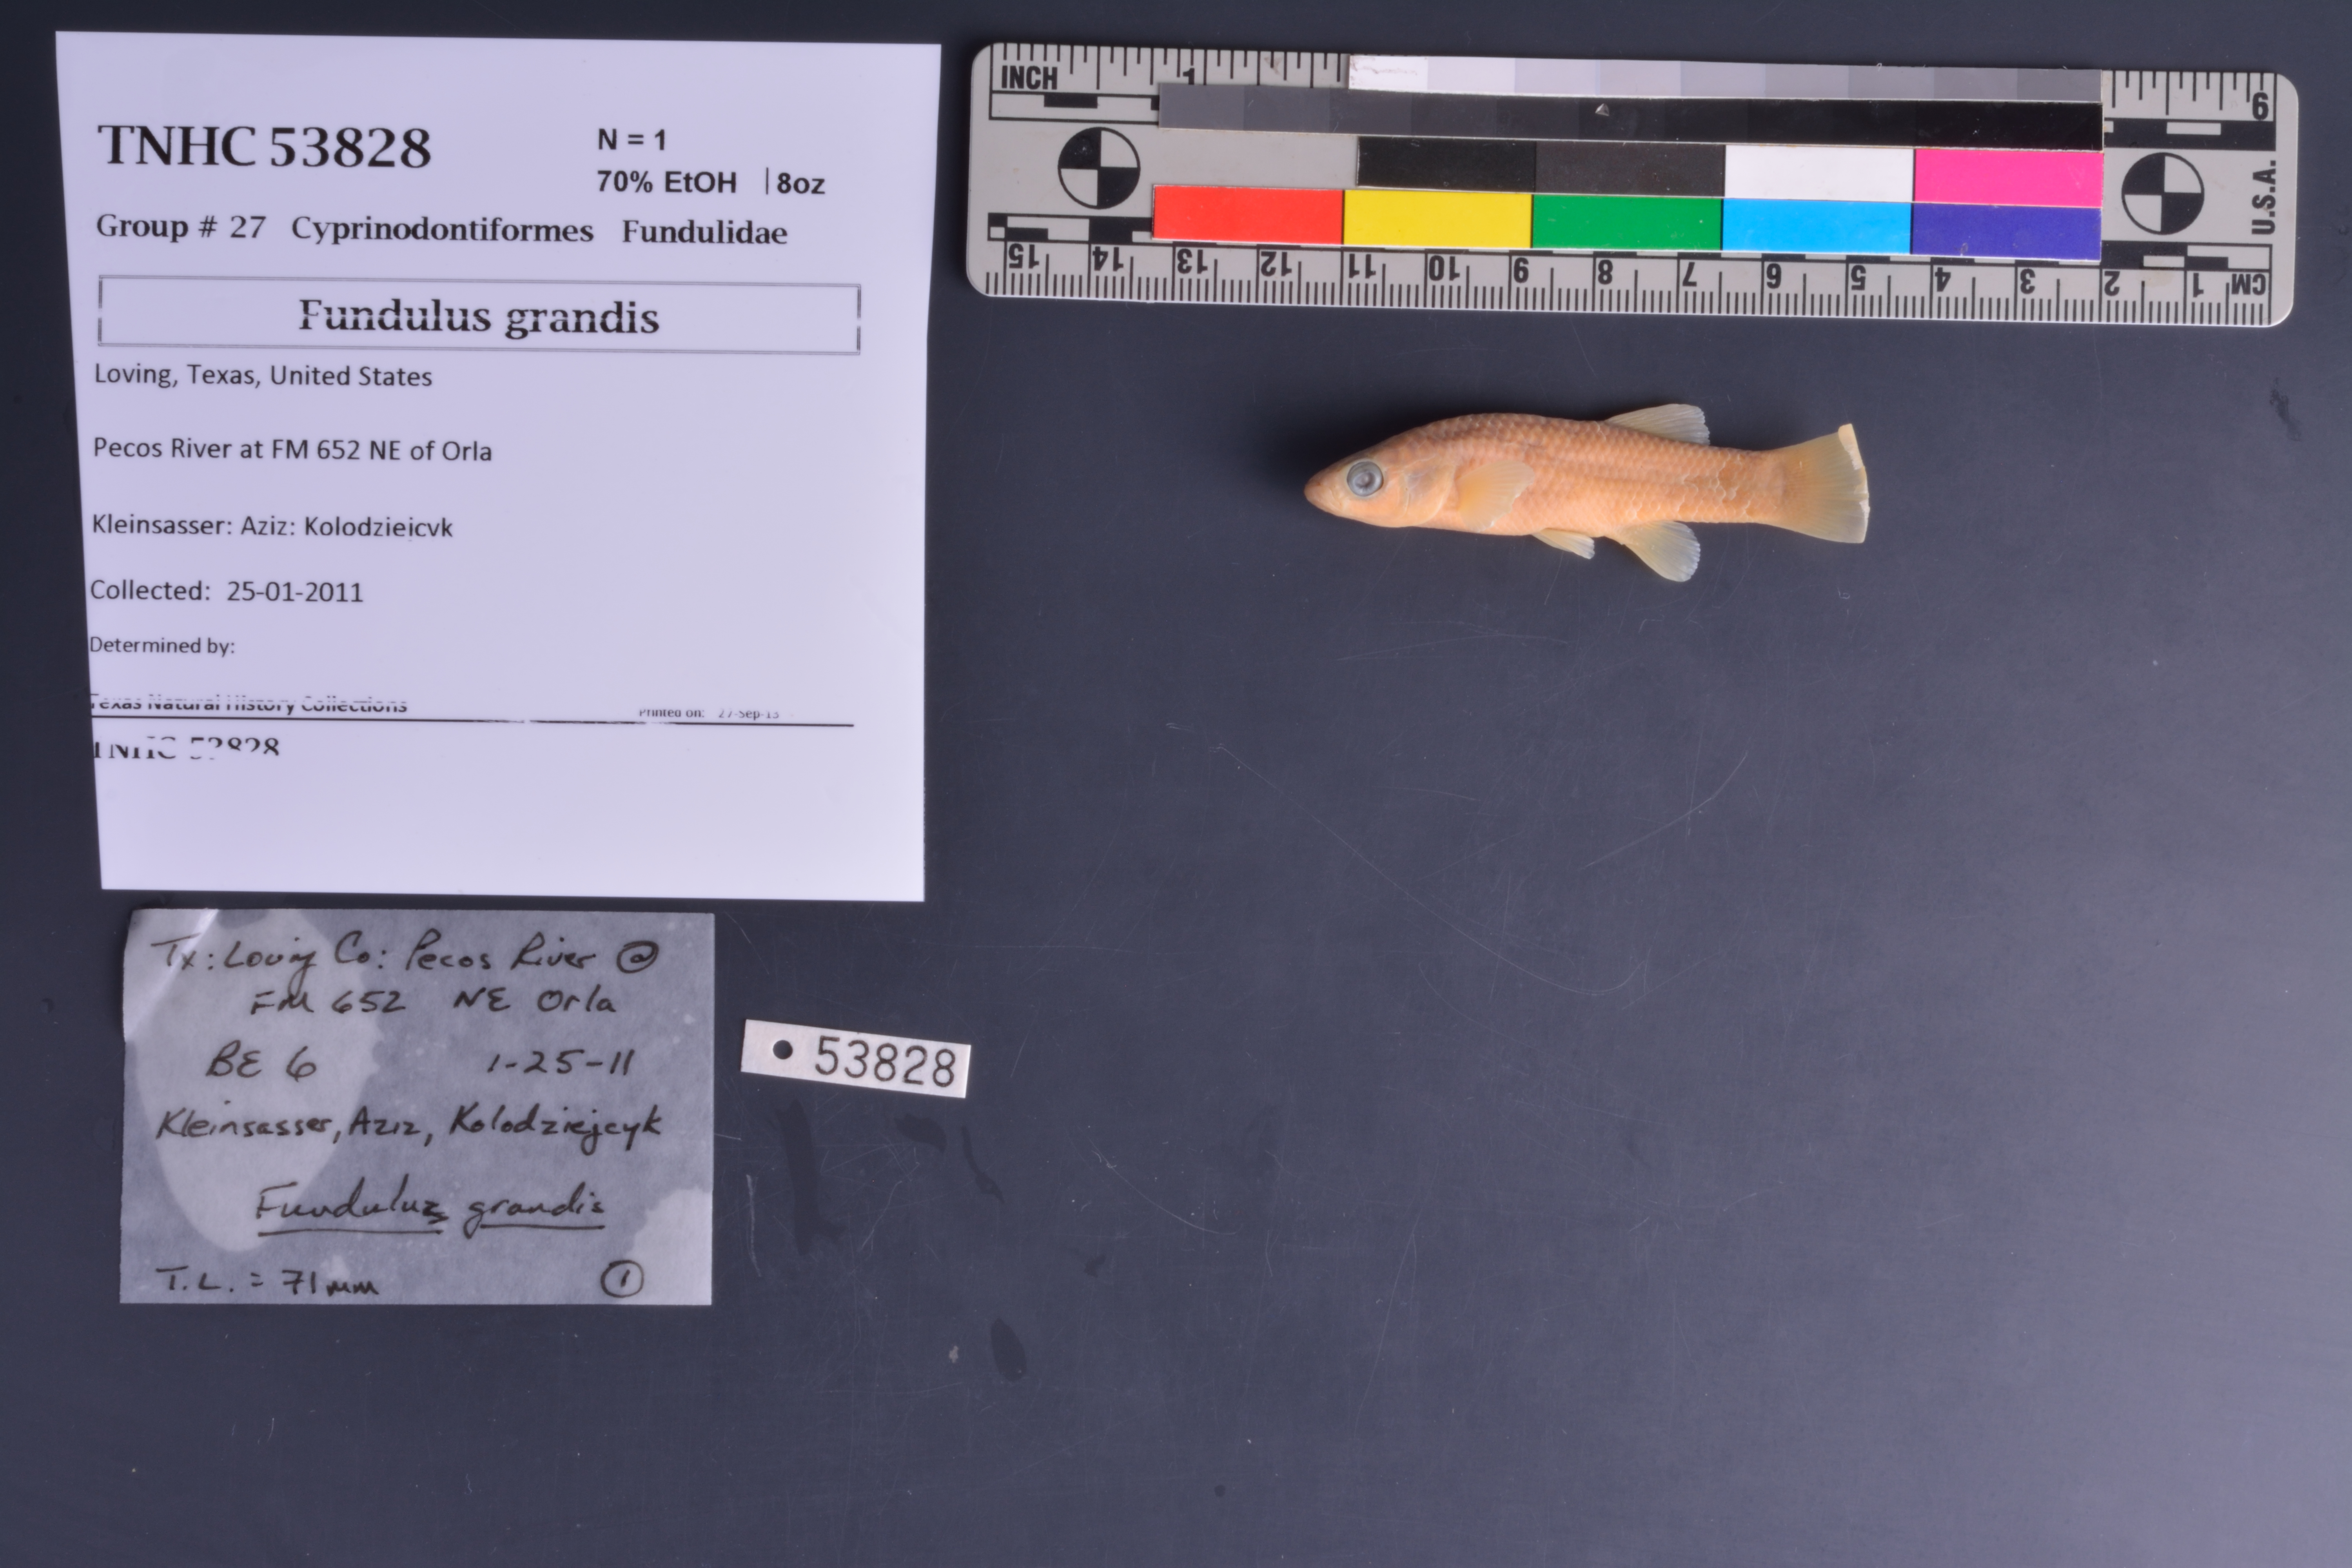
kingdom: Animalia
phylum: Chordata
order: Cyprinodontiformes
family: Fundulidae
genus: Fundulus
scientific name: Fundulus grandis
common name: Gulf killifish
